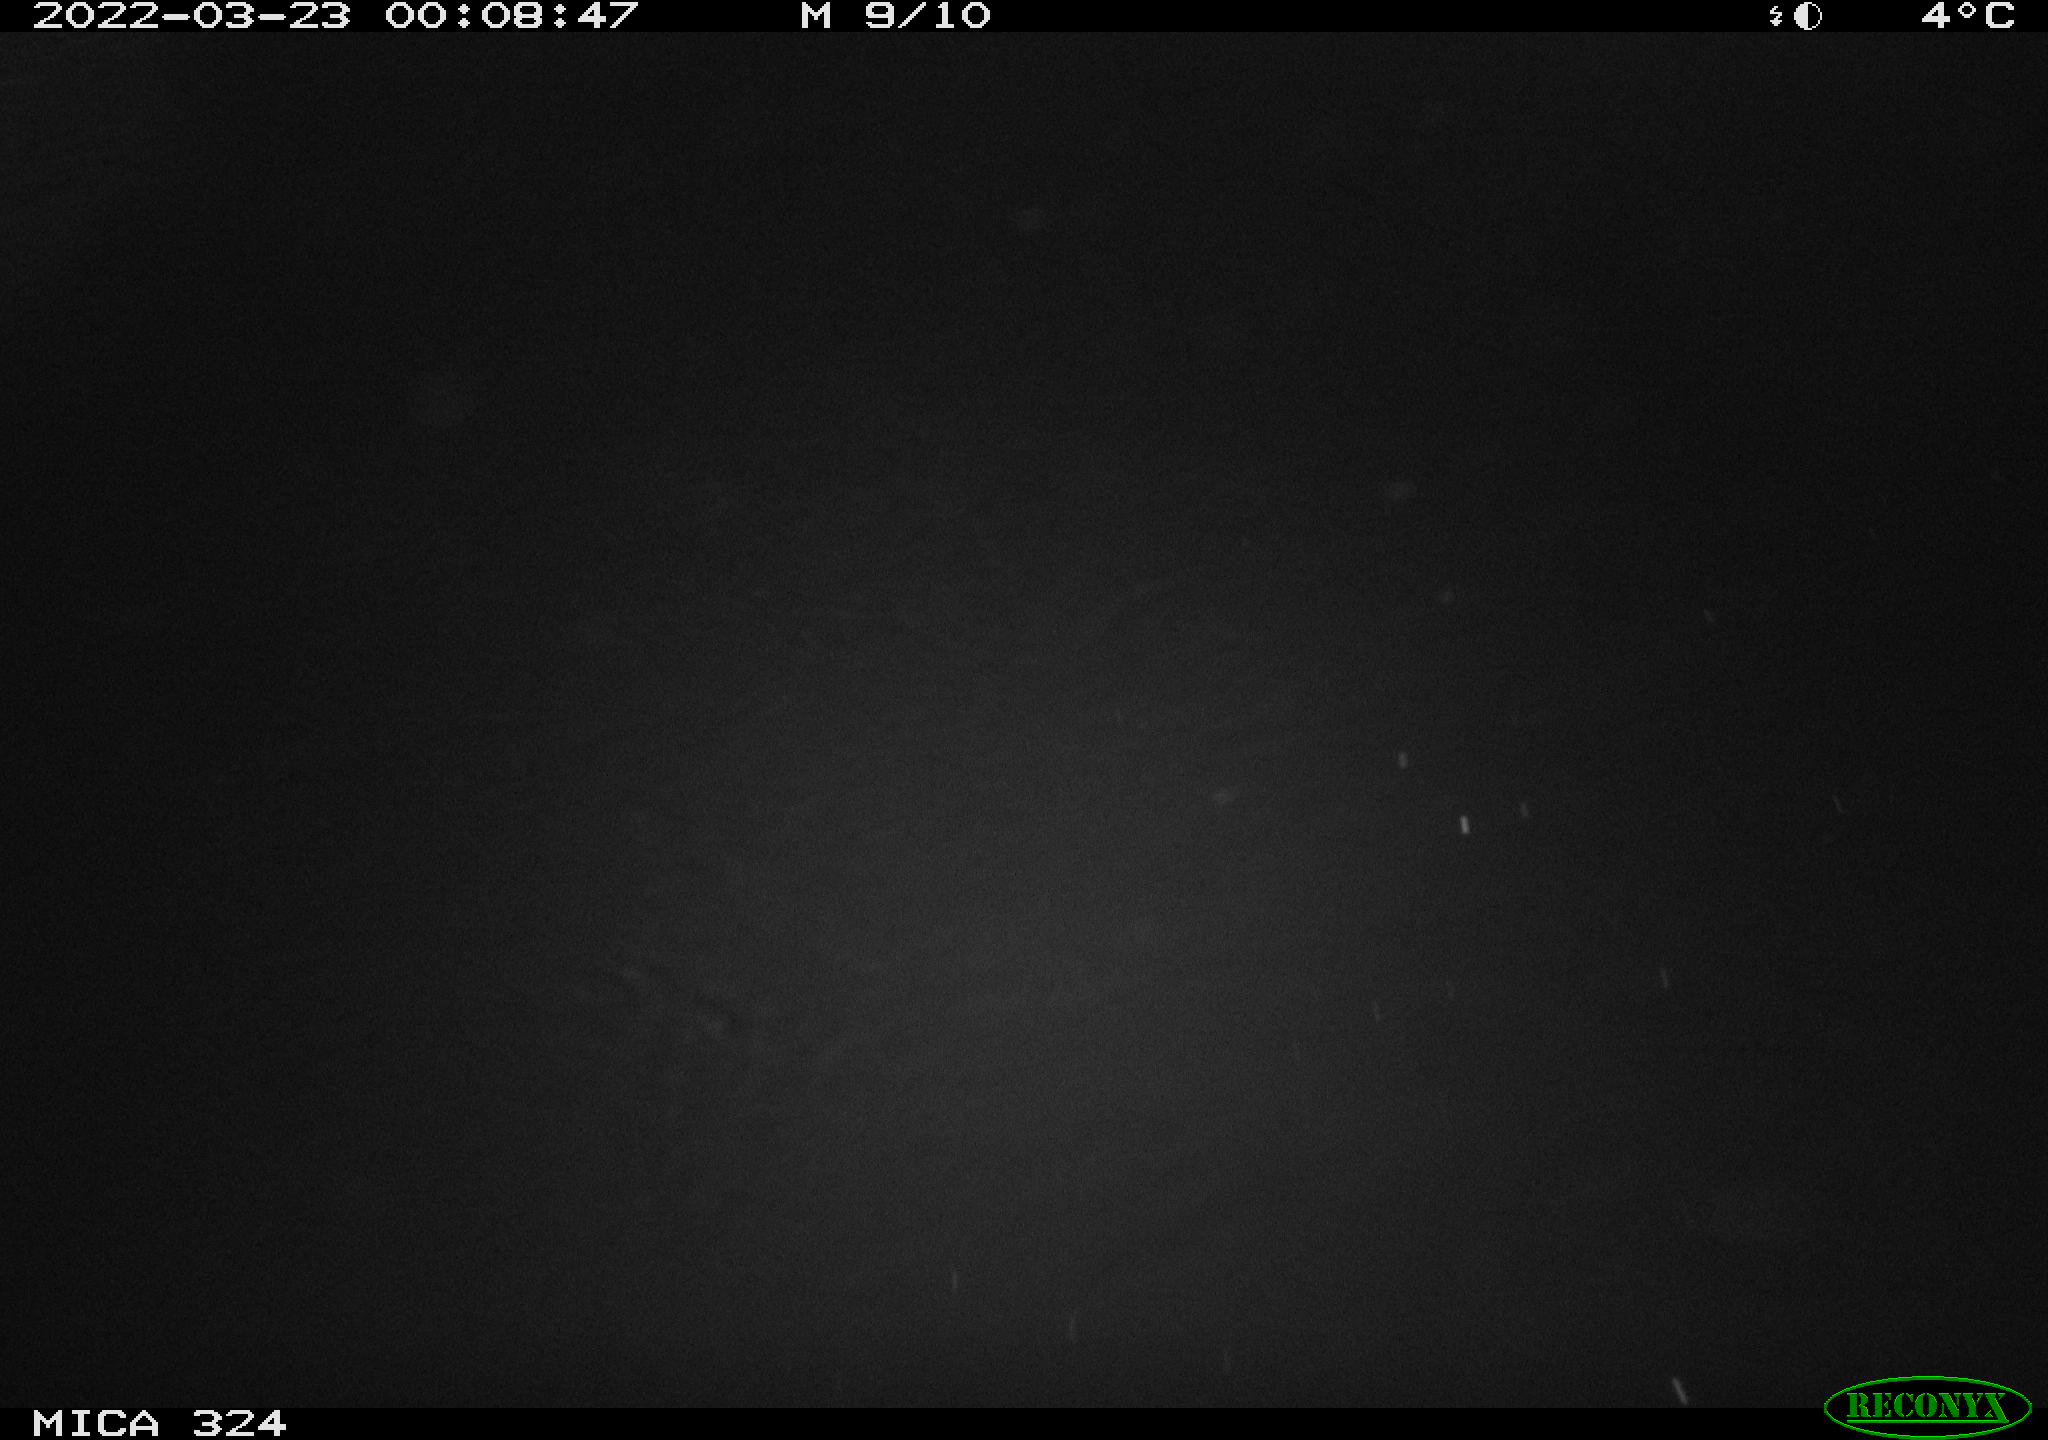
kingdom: Animalia
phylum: Chordata
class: Mammalia
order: Rodentia
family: Cricetidae
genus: Ondatra
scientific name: Ondatra zibethicus
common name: Muskrat
